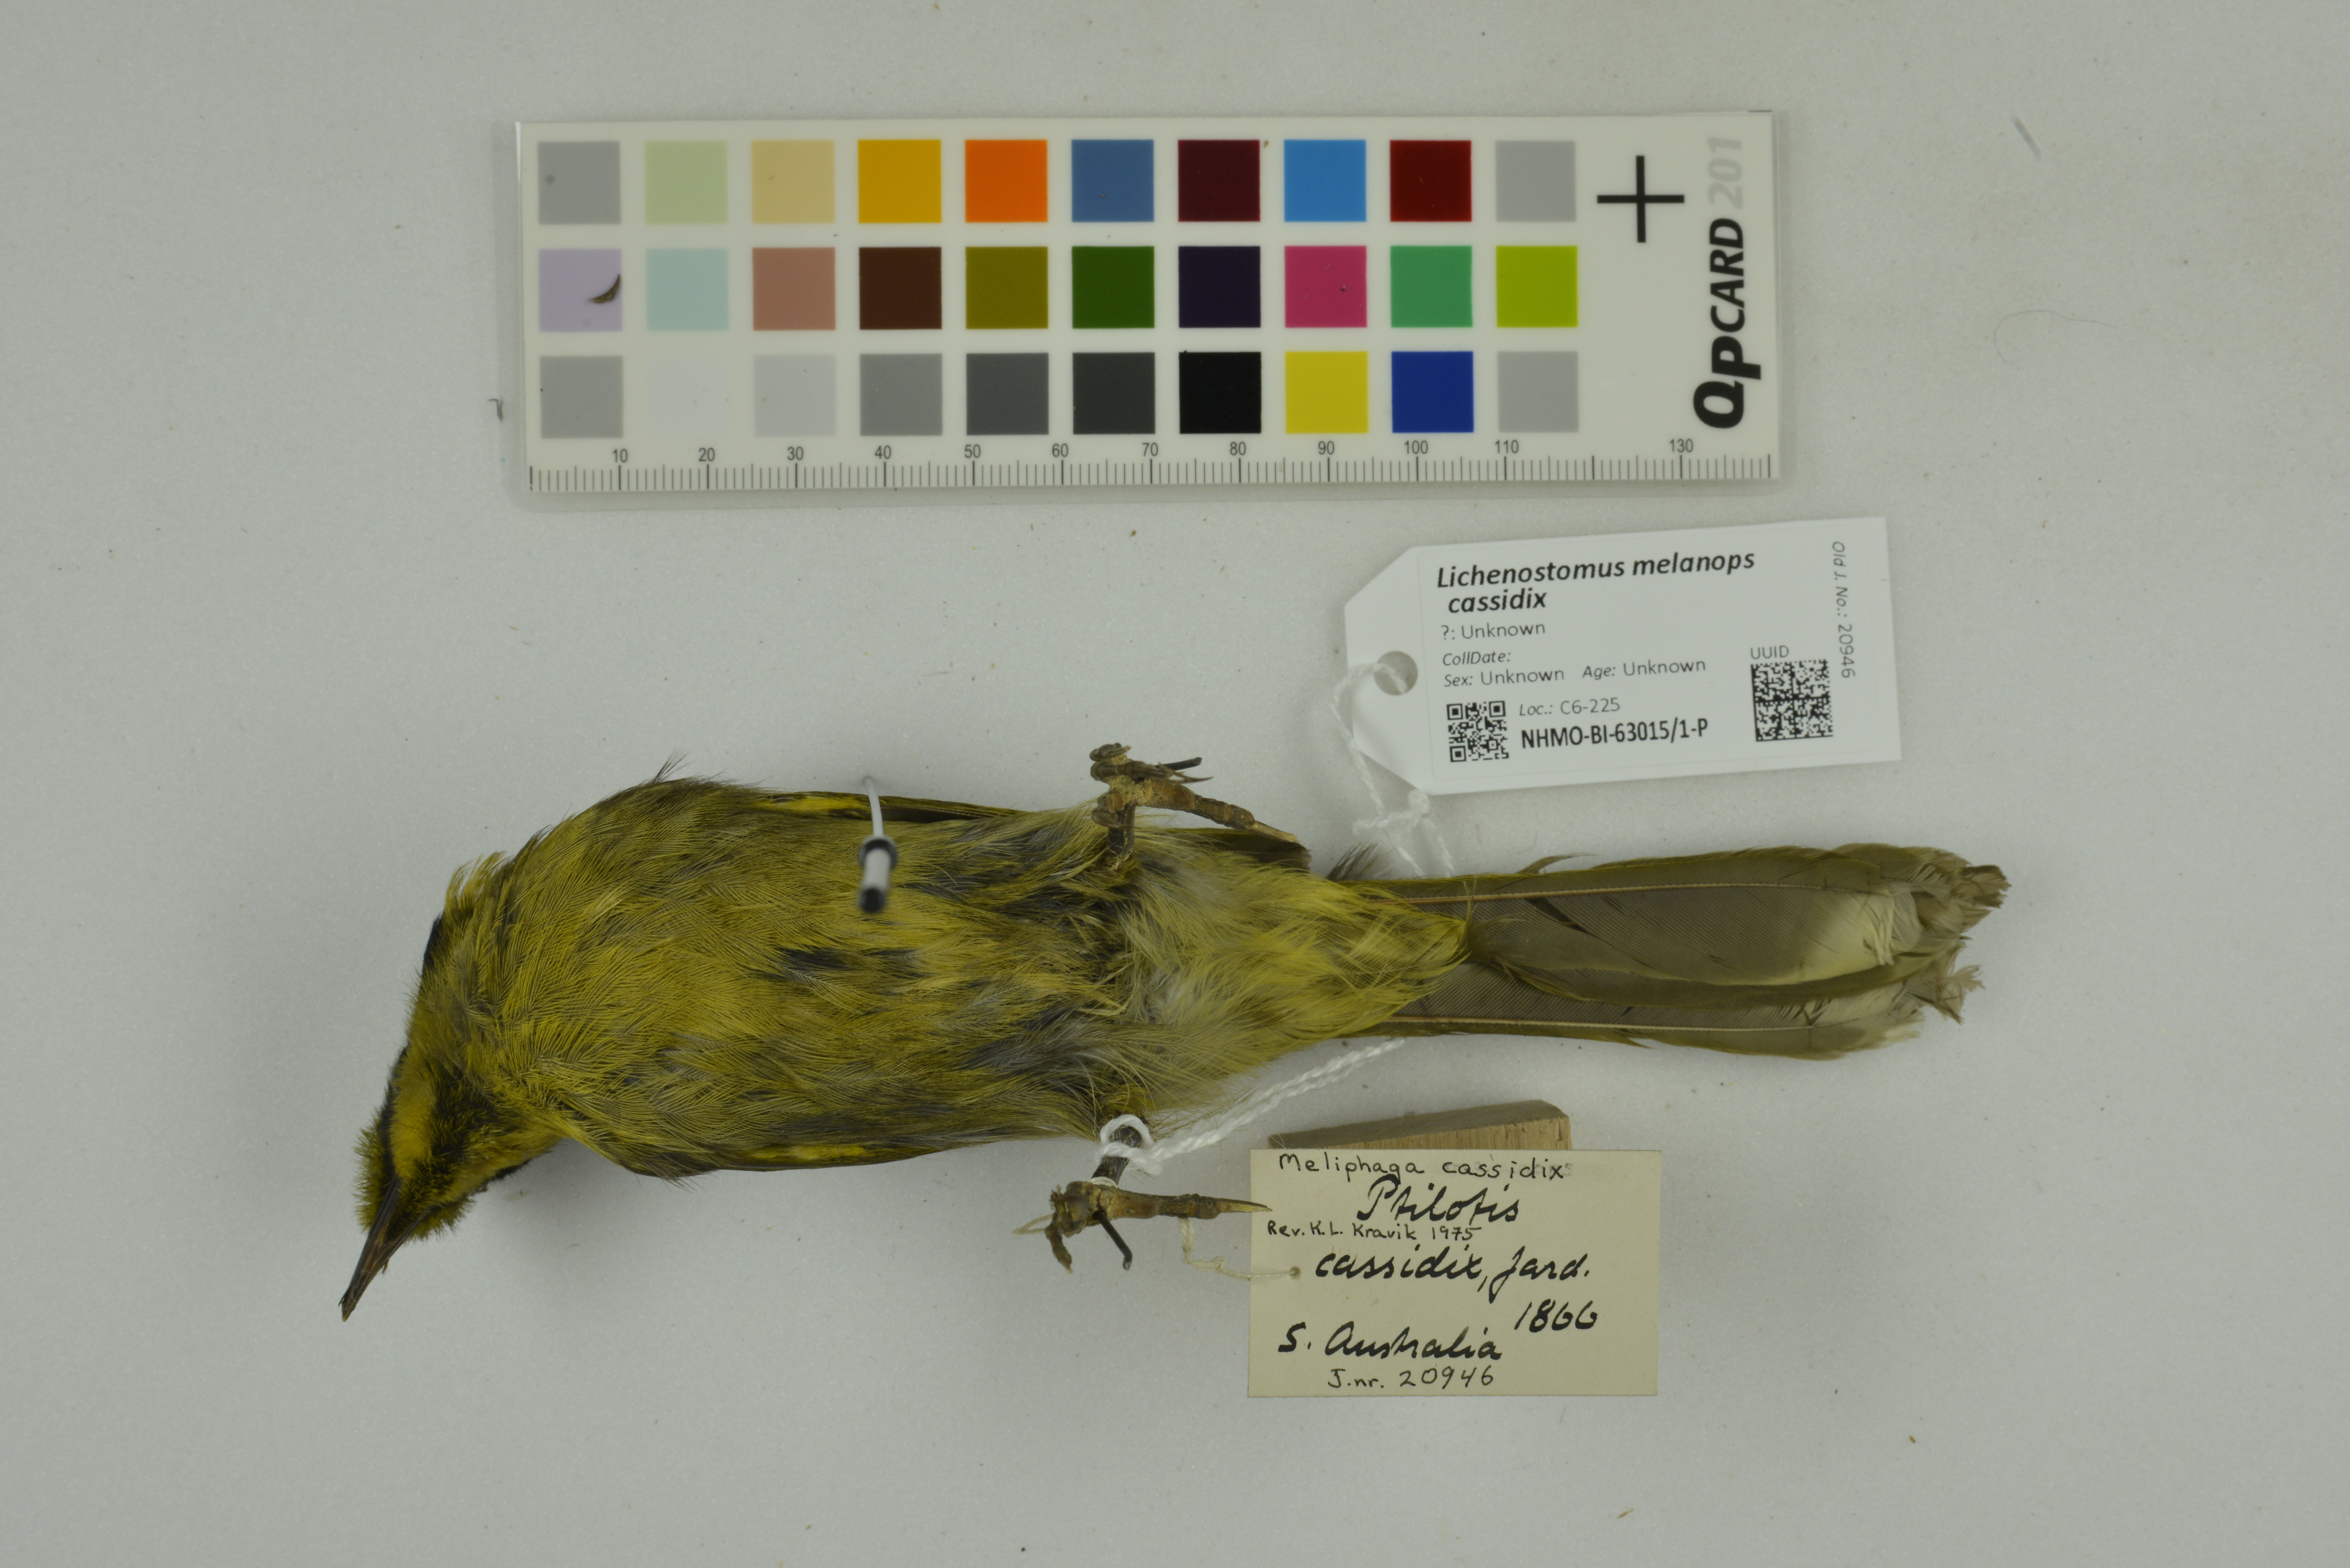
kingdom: Animalia
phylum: Chordata
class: Aves
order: Passeriformes
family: Meliphagidae
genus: Lichenostomus
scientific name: Lichenostomus melanops
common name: Yellow-tufted honeyeater
